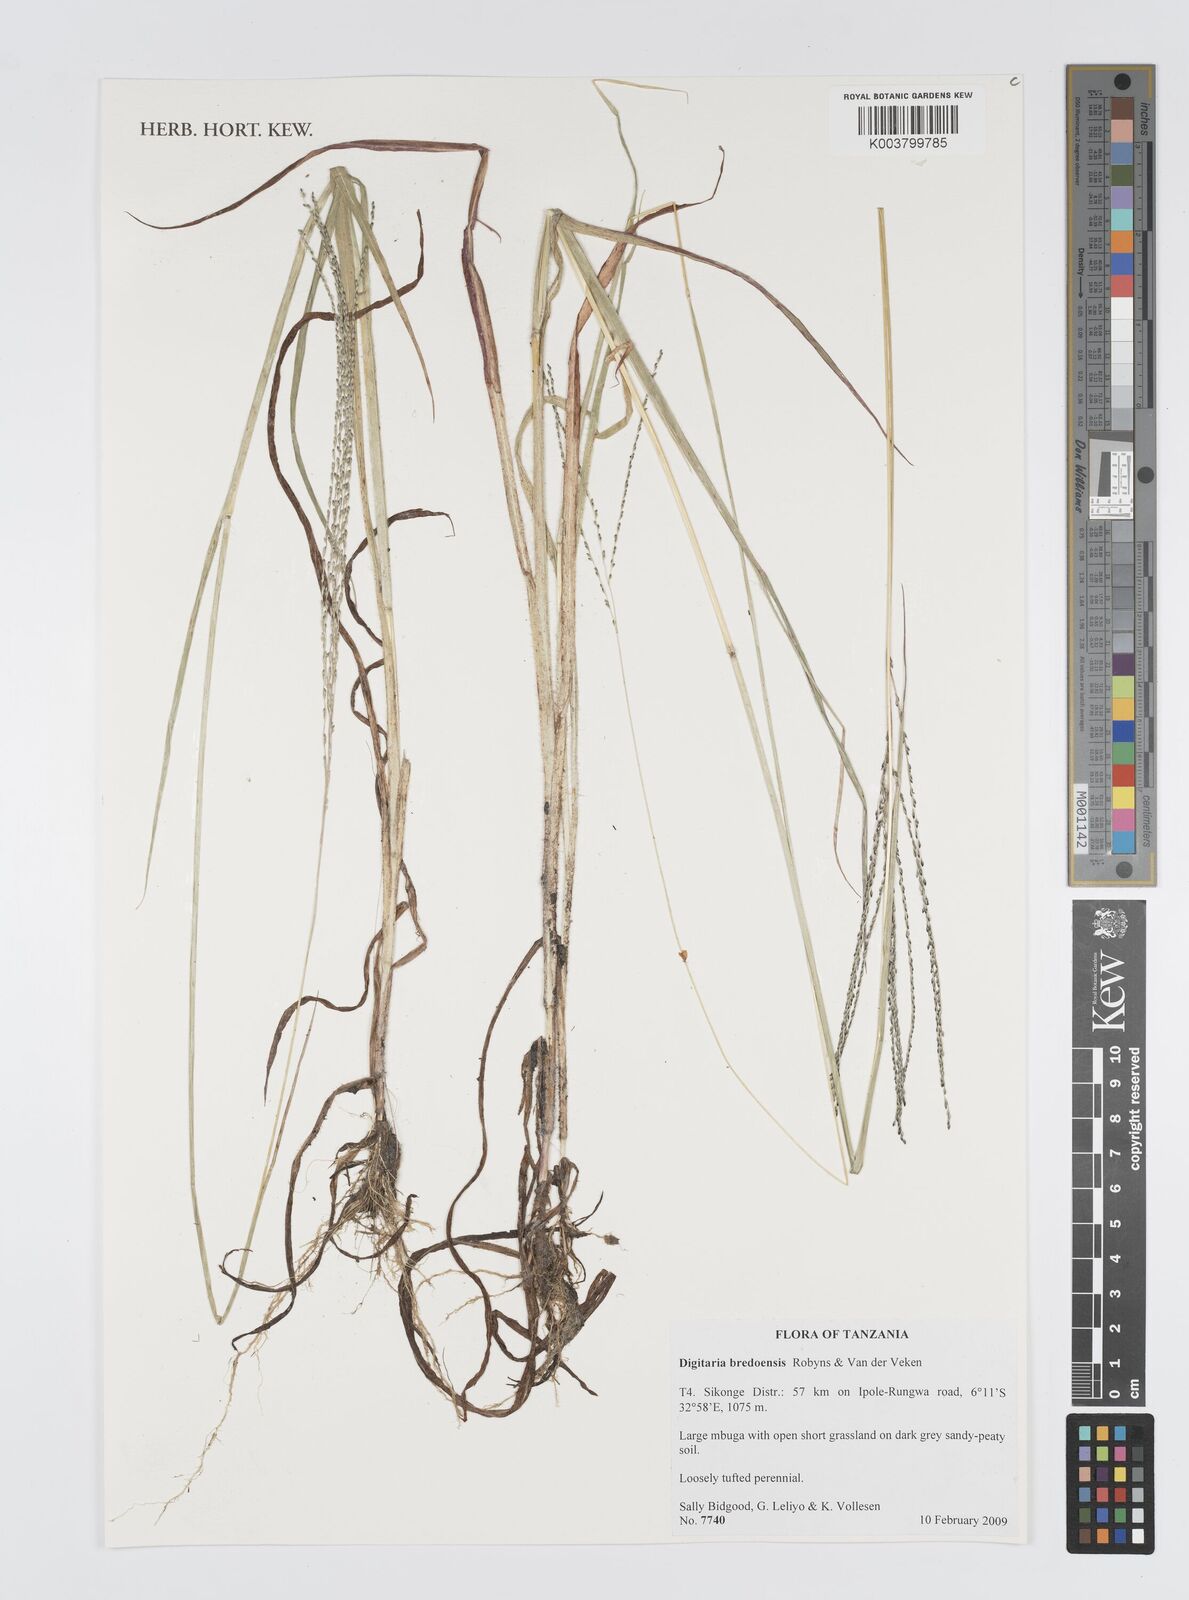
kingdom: Plantae
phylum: Tracheophyta
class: Liliopsida
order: Poales
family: Poaceae
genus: Digitaria
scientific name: Digitaria leptorhachis
